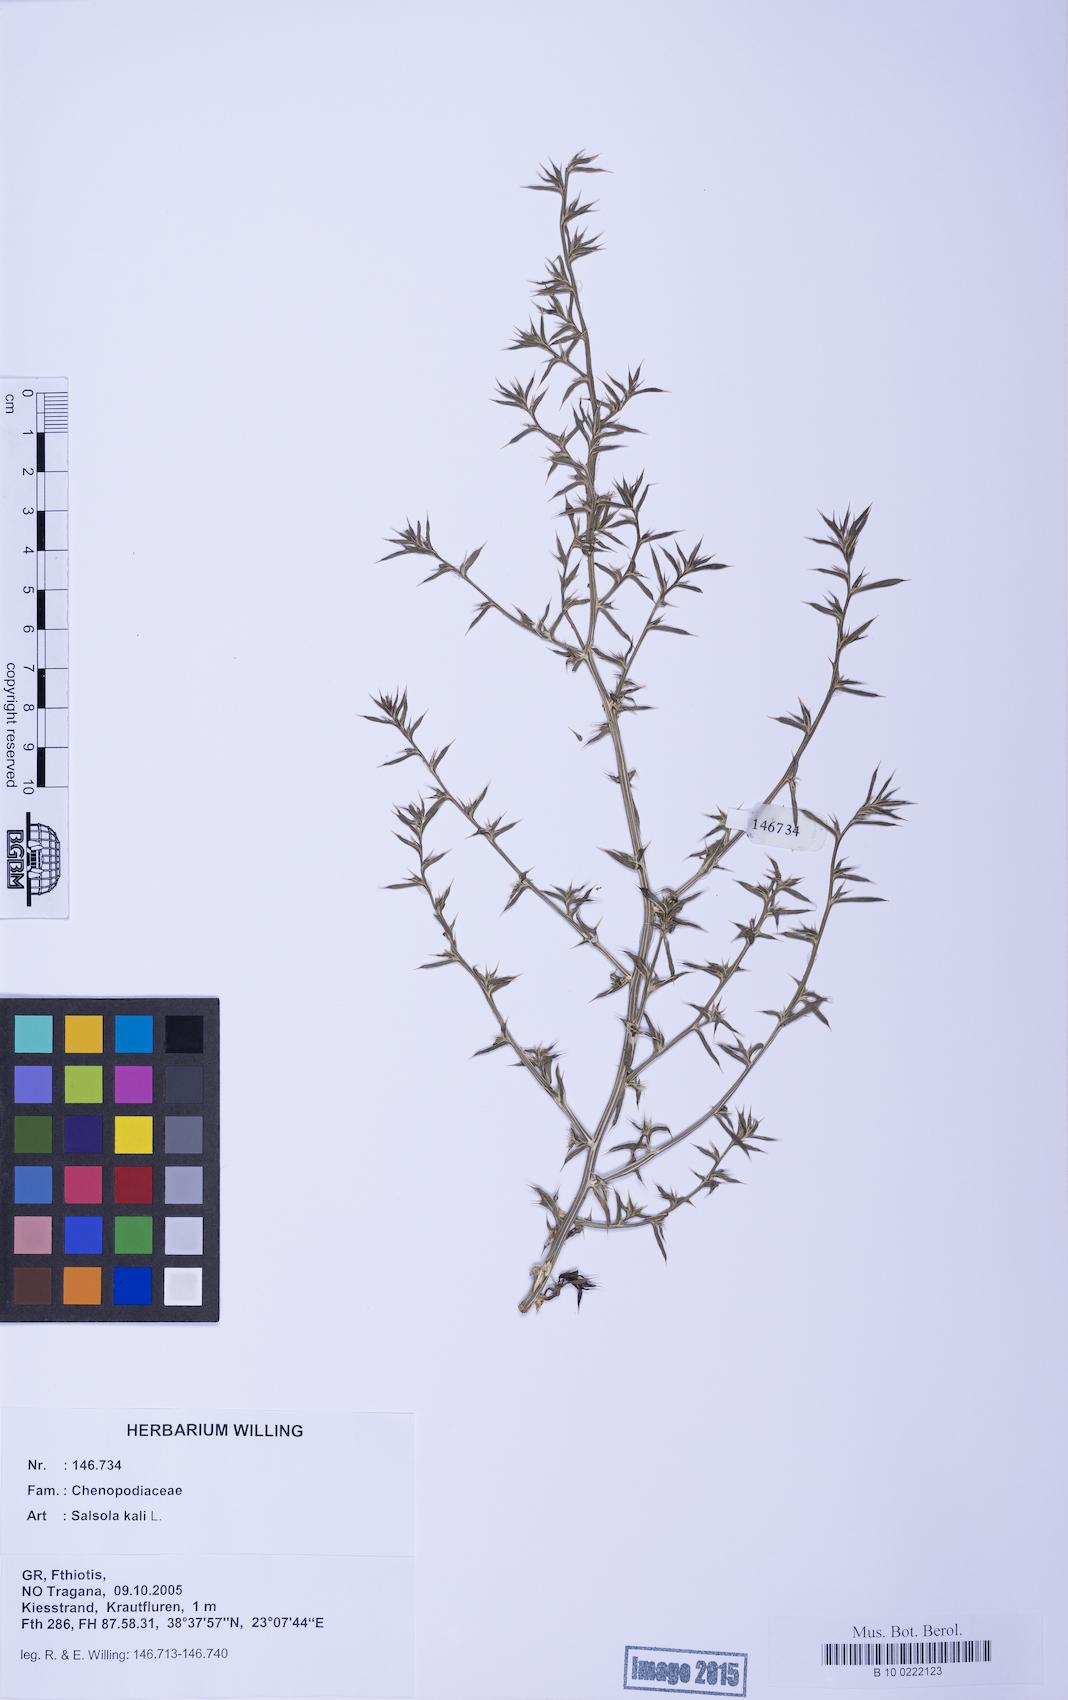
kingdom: Plantae
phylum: Tracheophyta
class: Magnoliopsida
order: Caryophyllales
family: Amaranthaceae
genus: Salsola
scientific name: Salsola kali
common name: Saltwort
